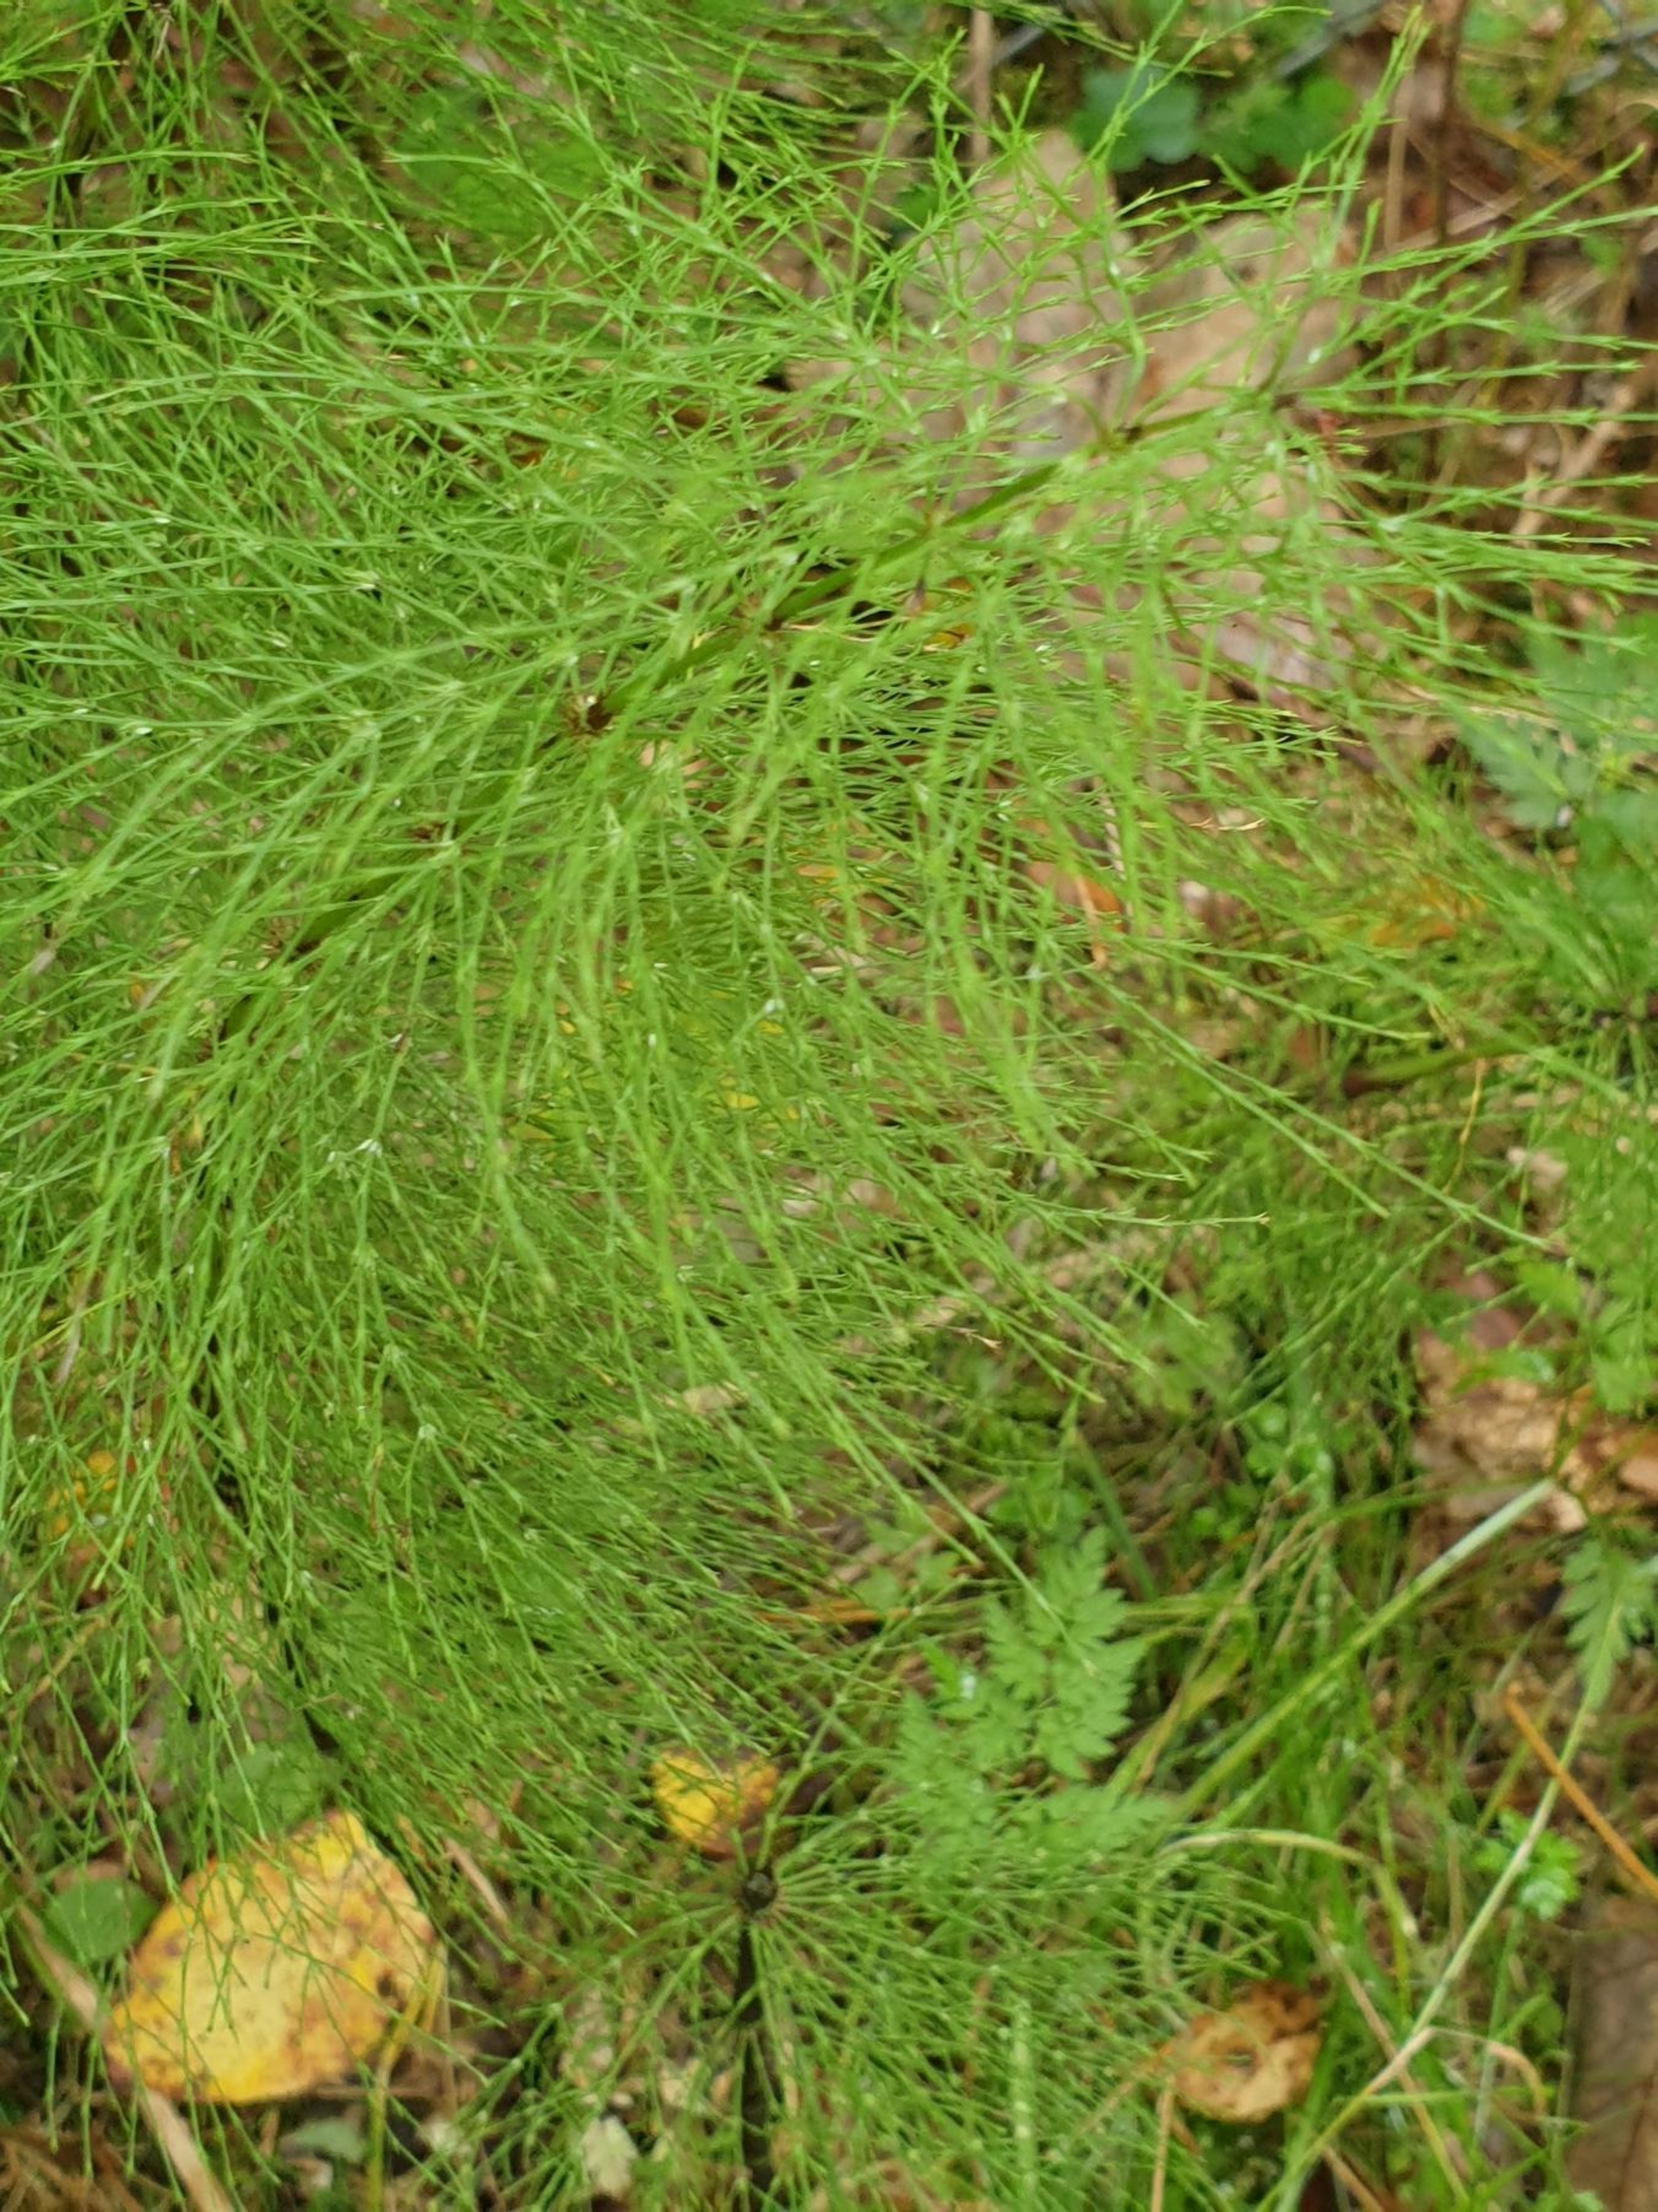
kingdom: Plantae
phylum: Tracheophyta
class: Polypodiopsida
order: Equisetales
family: Equisetaceae
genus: Equisetum
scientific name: Equisetum sylvaticum
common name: Skov-padderok
